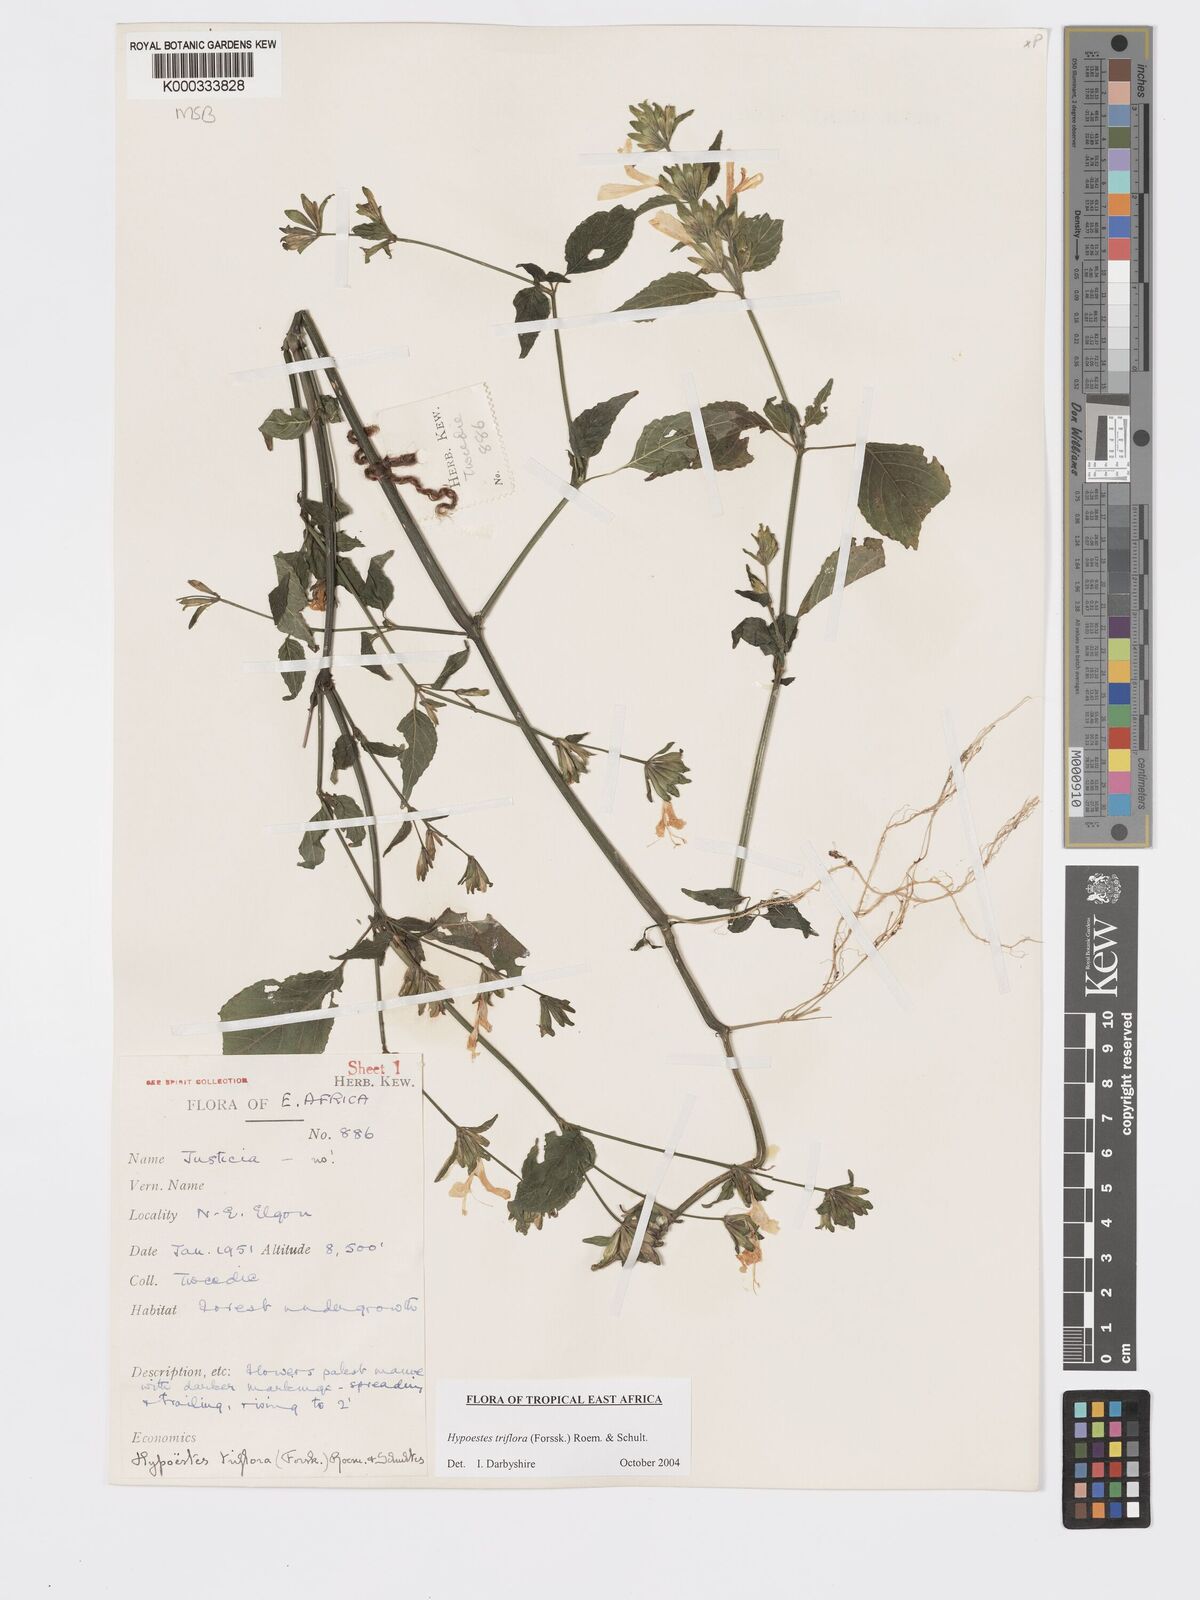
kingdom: Plantae
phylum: Tracheophyta
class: Magnoliopsida
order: Lamiales
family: Acanthaceae
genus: Hypoestes
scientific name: Hypoestes triflora
